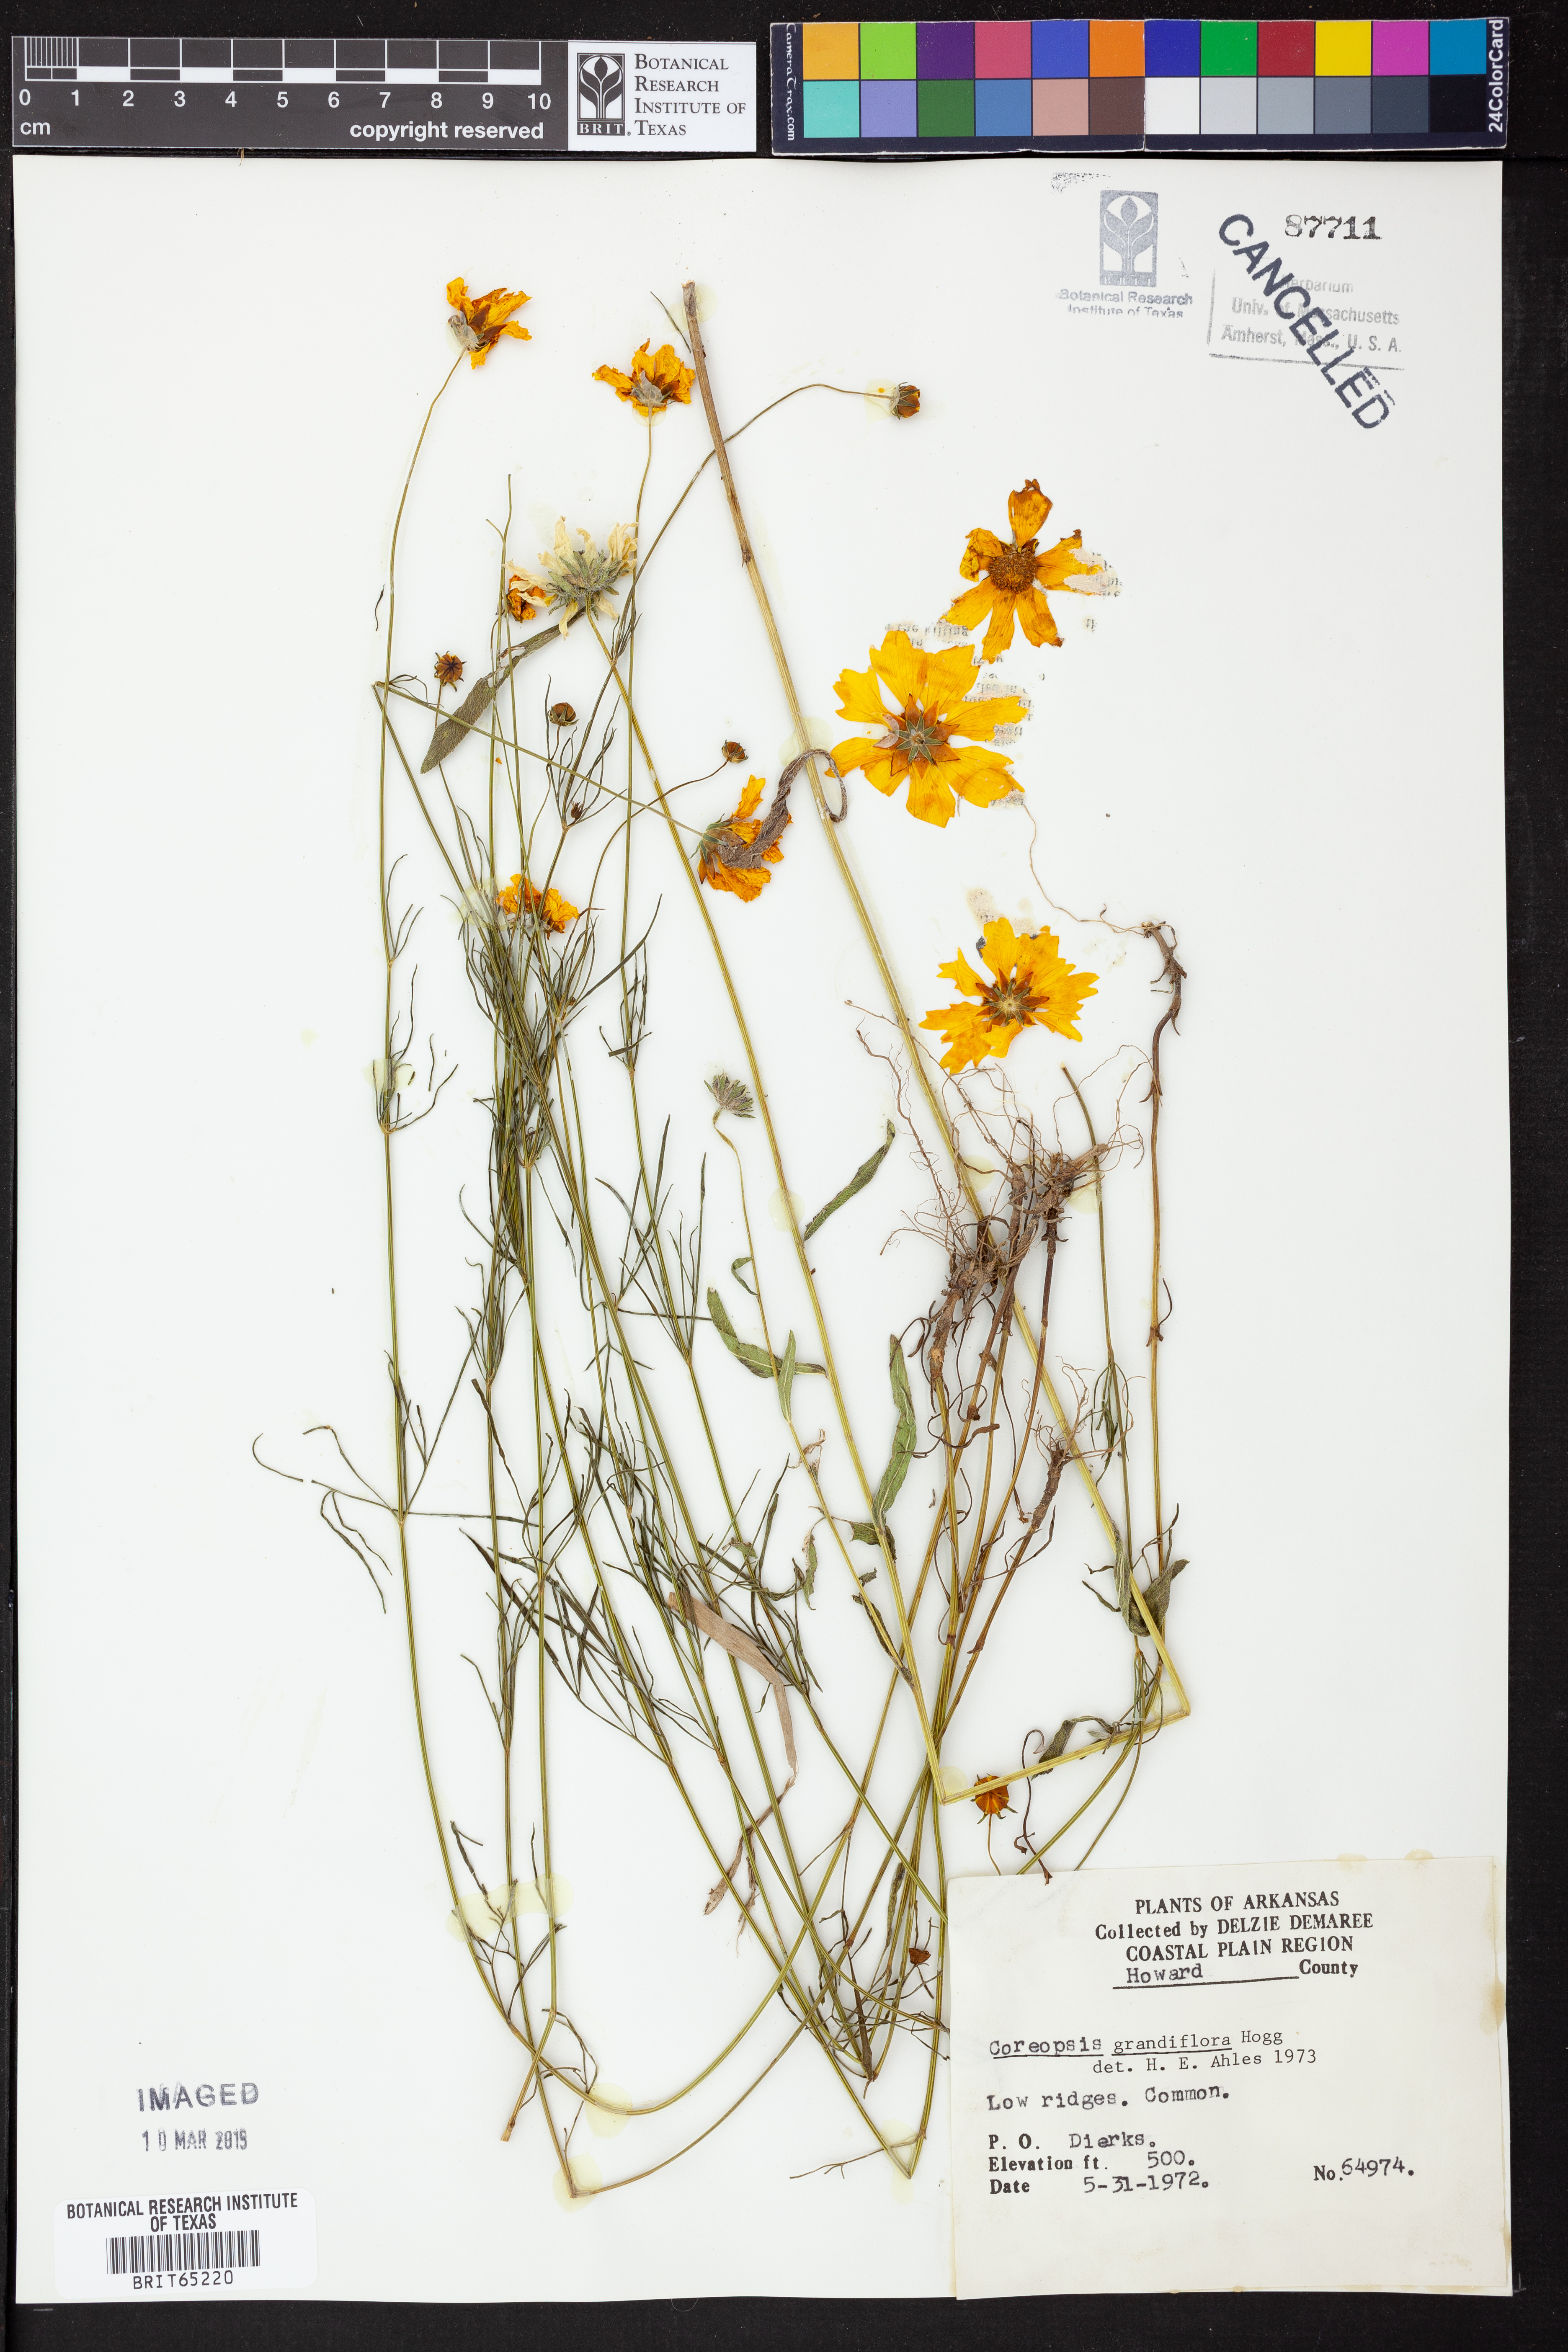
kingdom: Plantae
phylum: Tracheophyta
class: Magnoliopsida
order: Asterales
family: Asteraceae
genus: Coreopsis
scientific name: Coreopsis grandiflora
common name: Large-flowered tickseed
